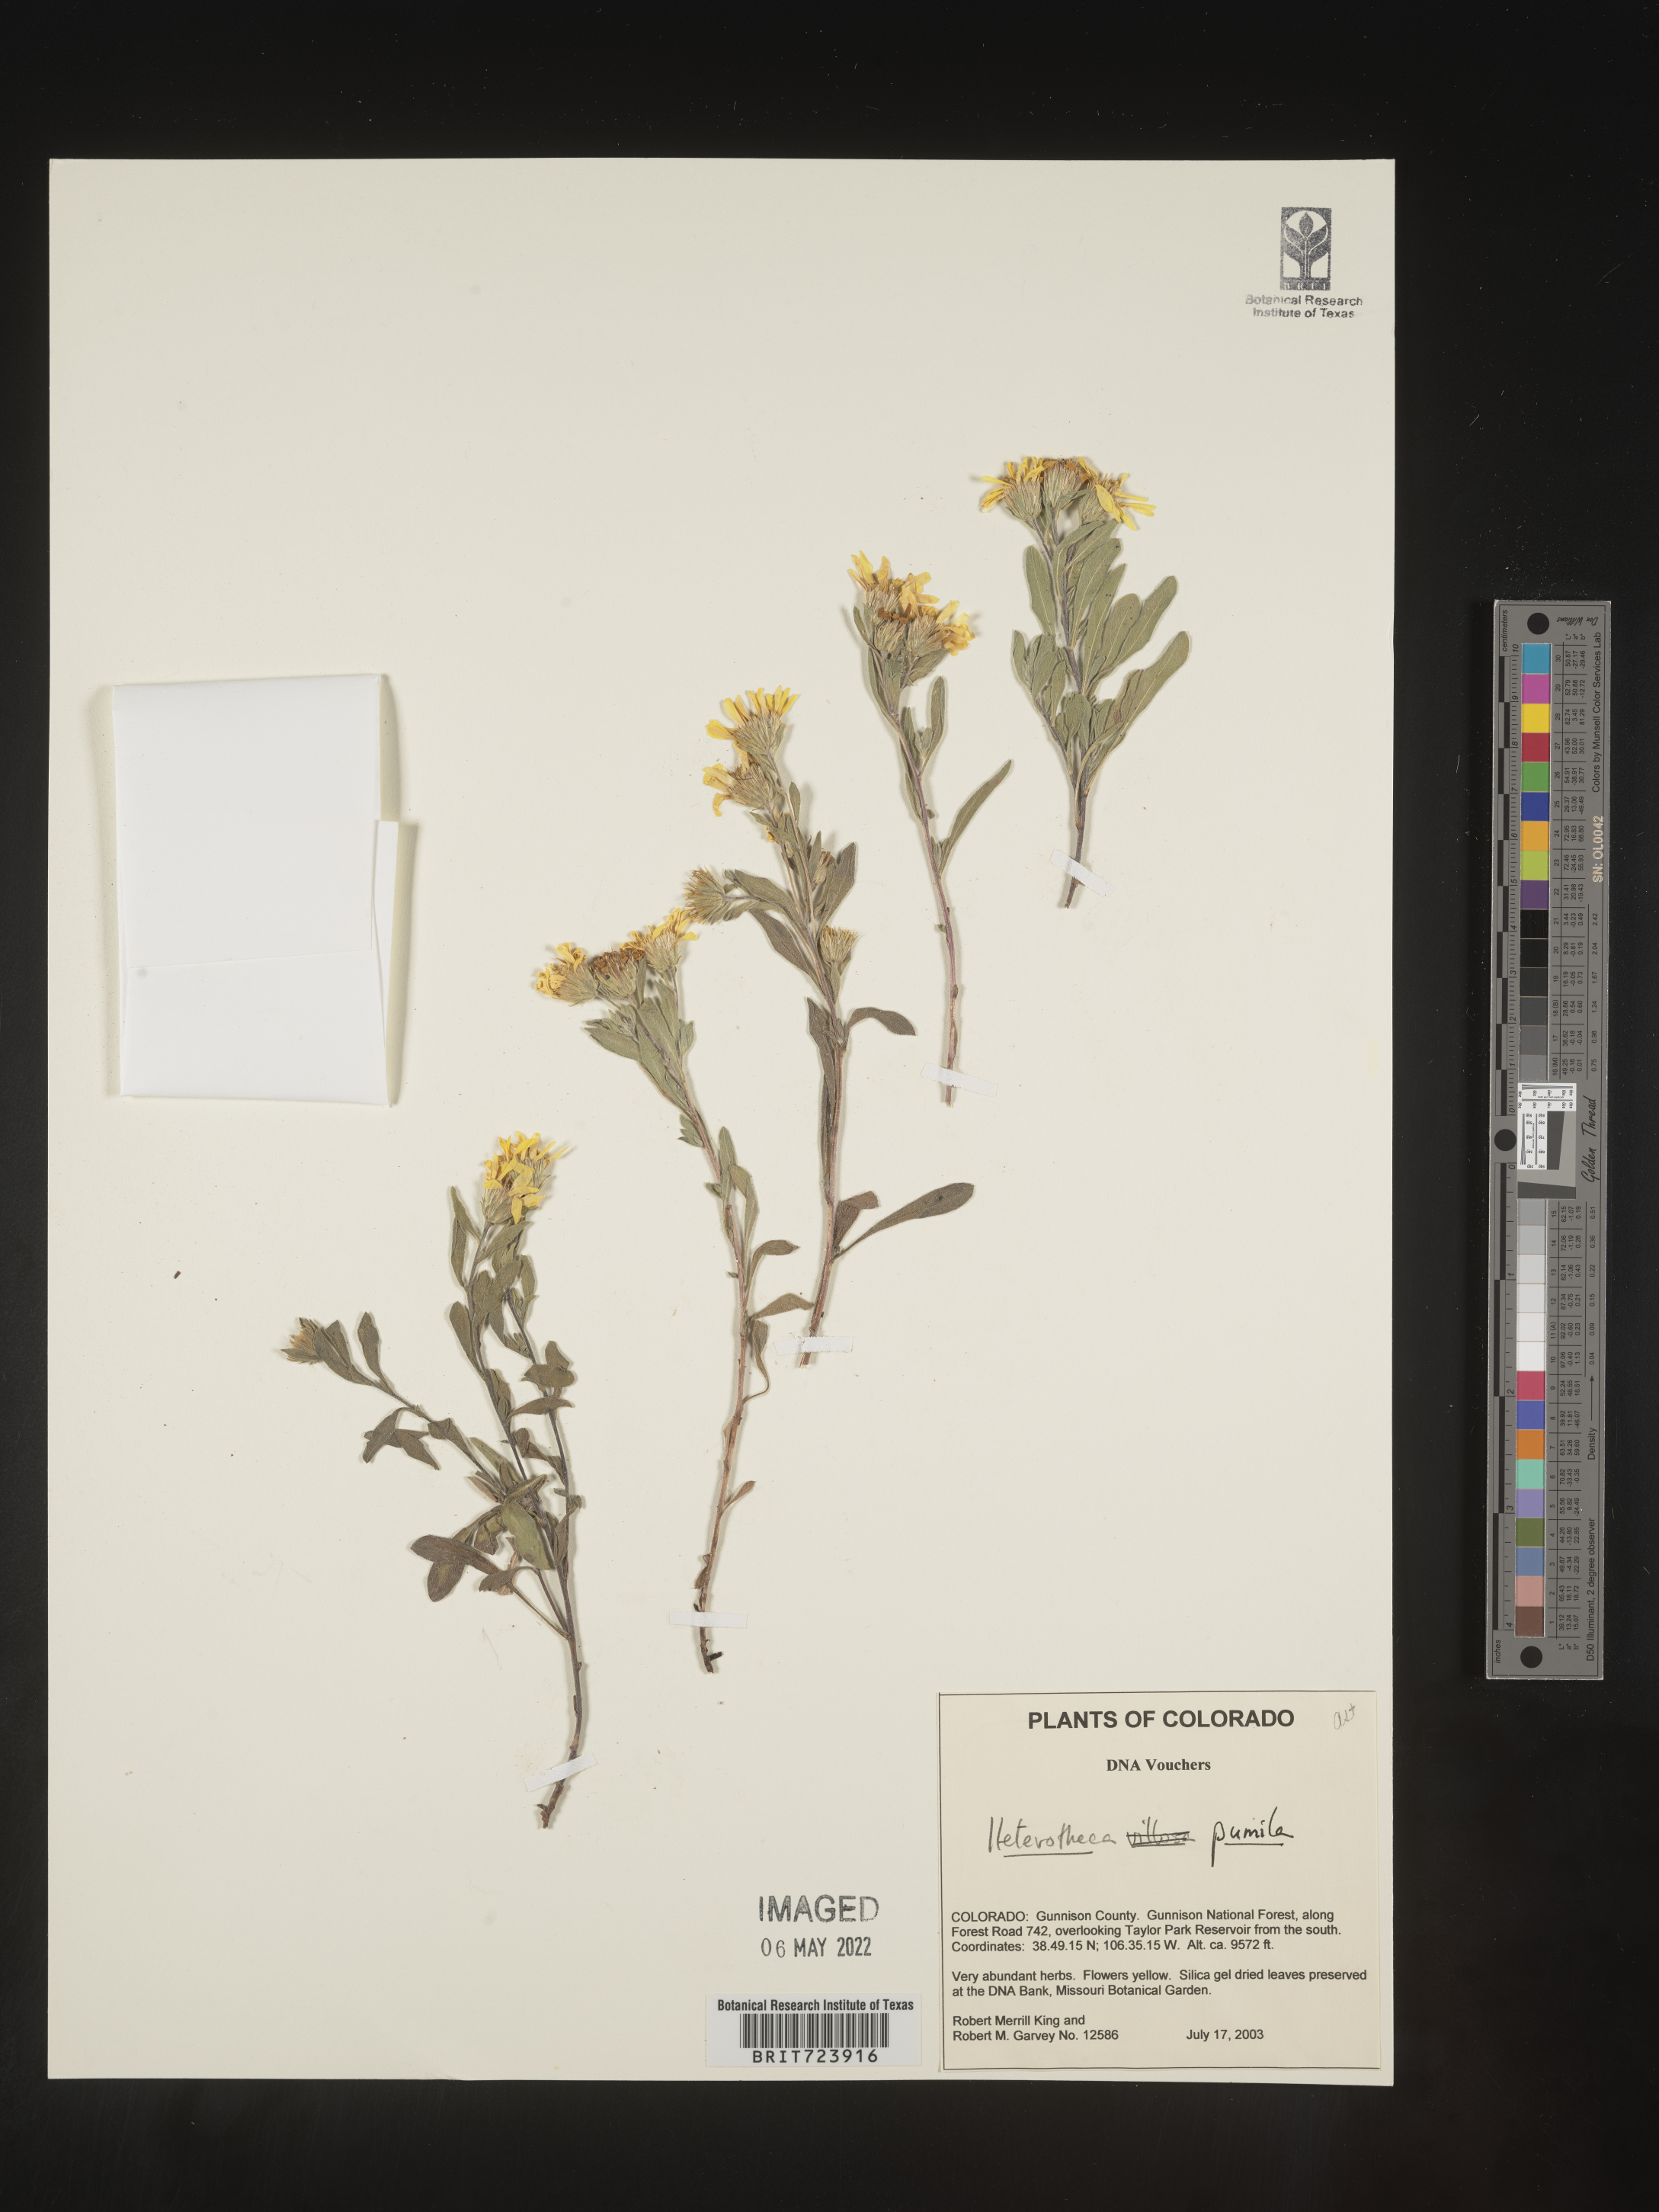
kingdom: Plantae
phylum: Tracheophyta
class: Magnoliopsida
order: Asterales
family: Asteraceae
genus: Heterotheca
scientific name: Heterotheca pumila
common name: Alpine golden-aster
